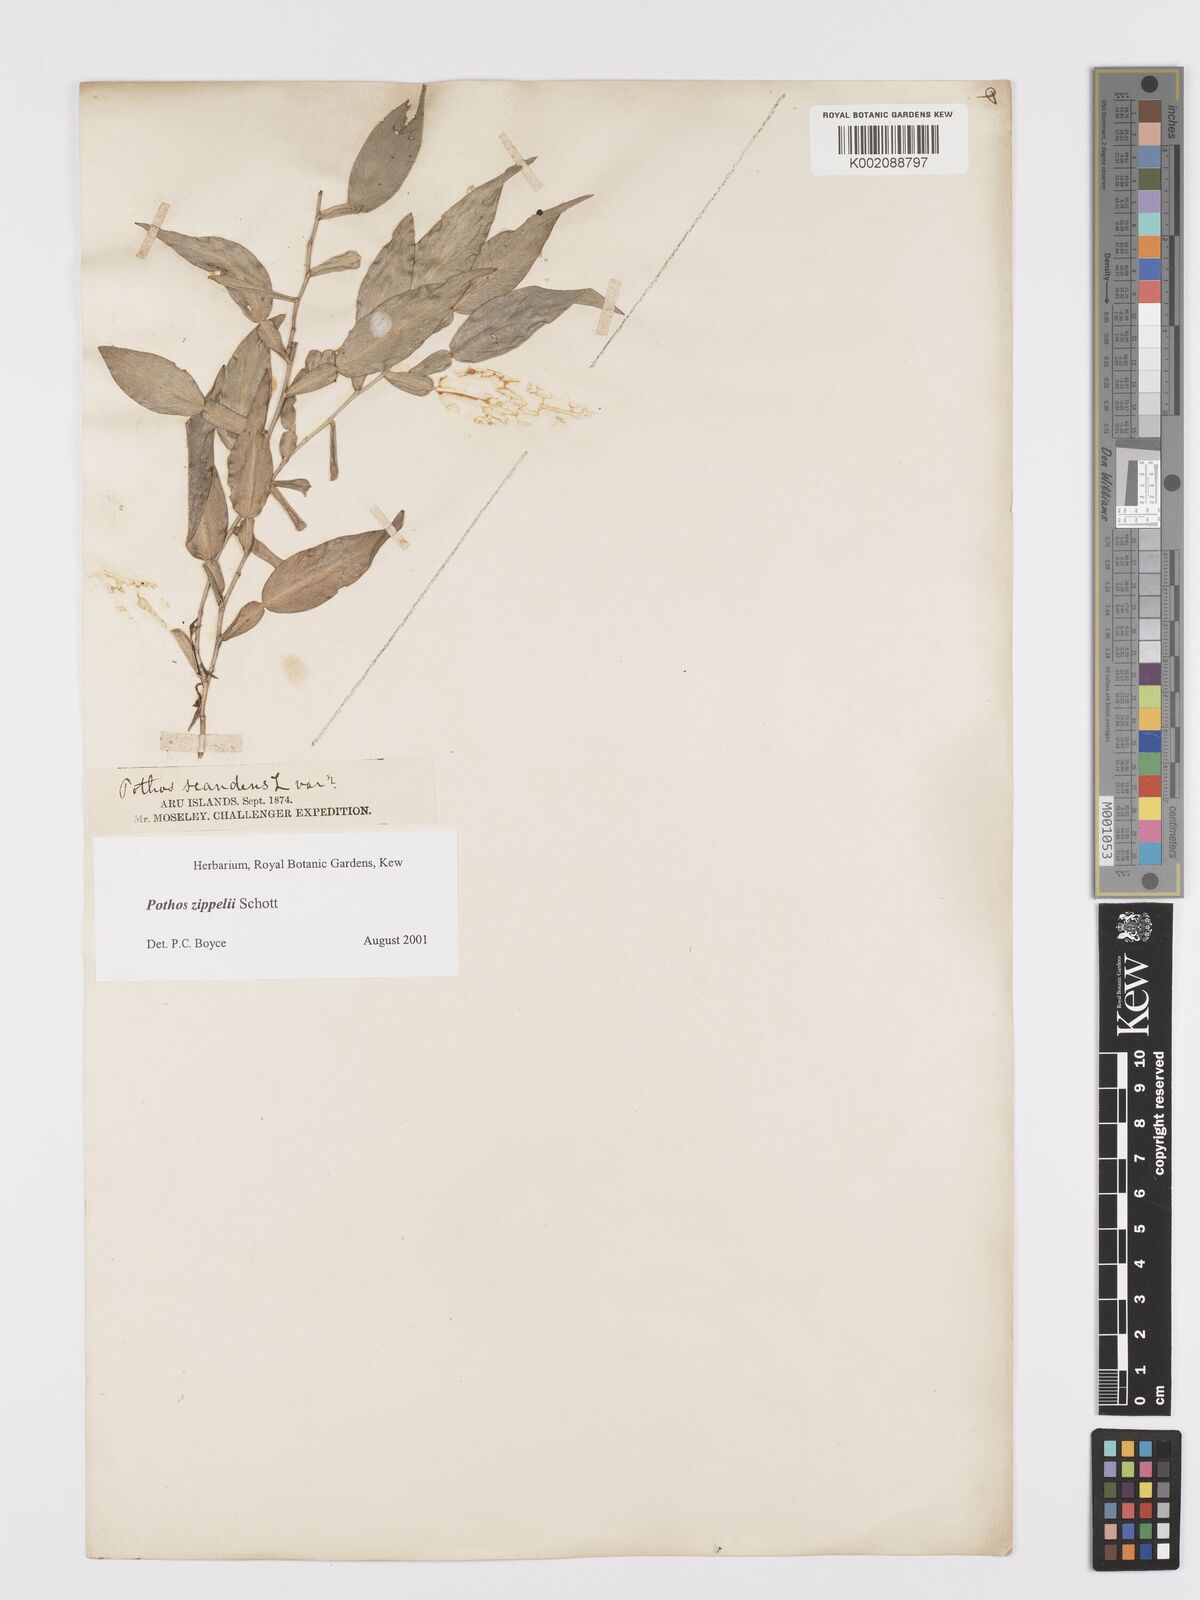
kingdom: Plantae
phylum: Tracheophyta
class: Liliopsida
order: Alismatales
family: Araceae
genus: Pothos
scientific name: Pothos zippelii
